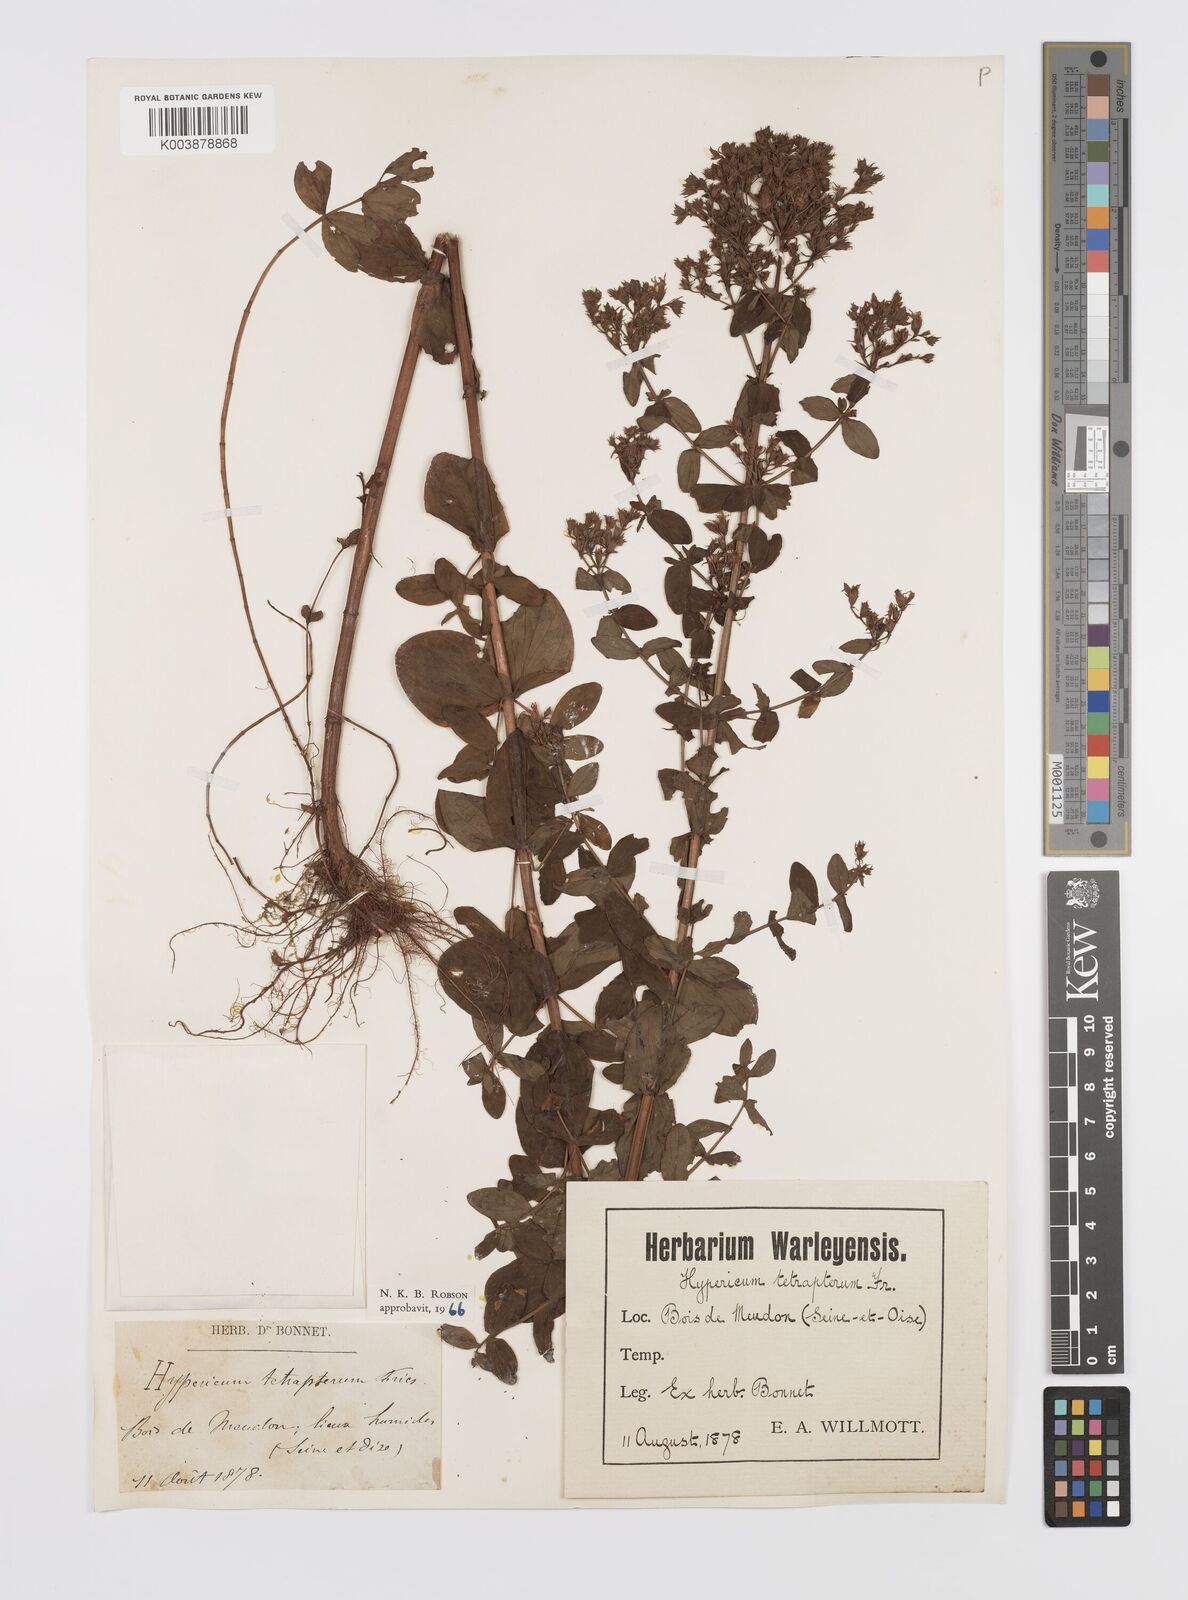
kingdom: Plantae
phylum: Tracheophyta
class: Magnoliopsida
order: Malpighiales
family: Hypericaceae
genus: Hypericum
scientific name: Hypericum tetrapterum
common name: Square-stalked st. john's-wort
